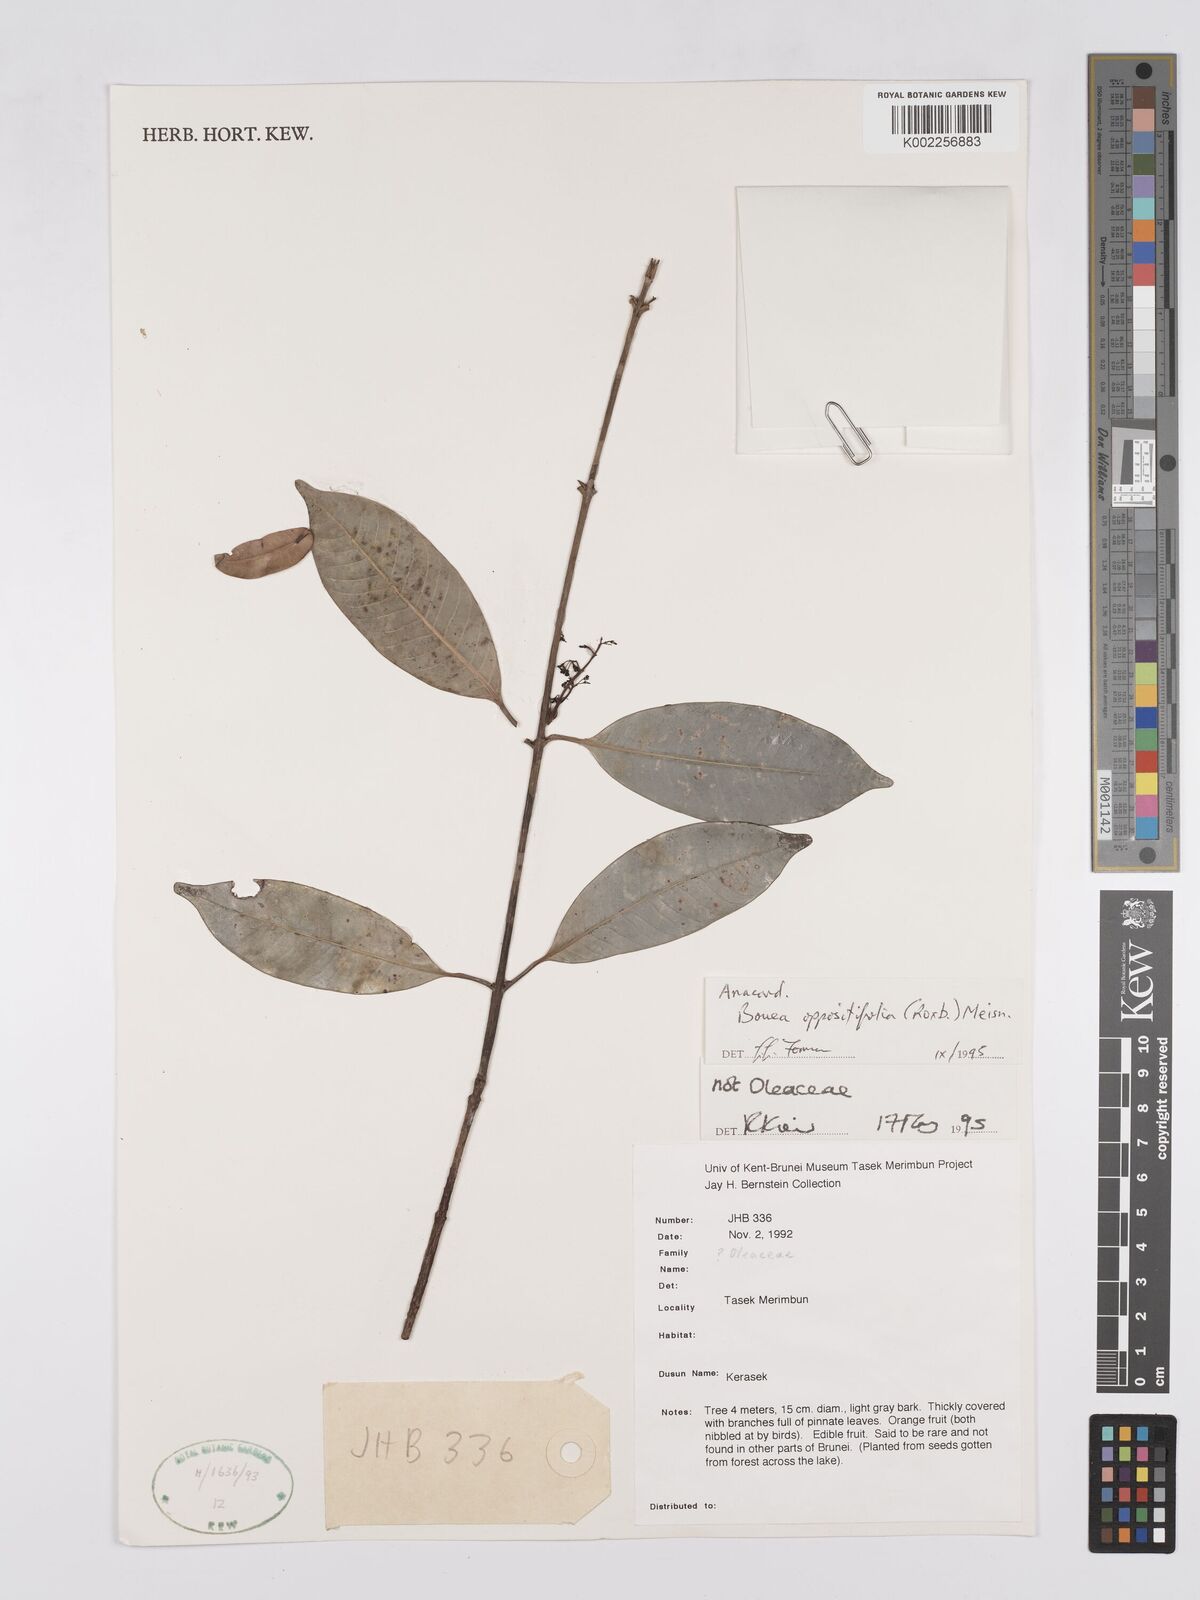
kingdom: Plantae
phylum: Tracheophyta
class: Magnoliopsida
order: Sapindales
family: Anacardiaceae
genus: Bouea
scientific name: Bouea oppositifolia
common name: Narrow-leaved kundang
